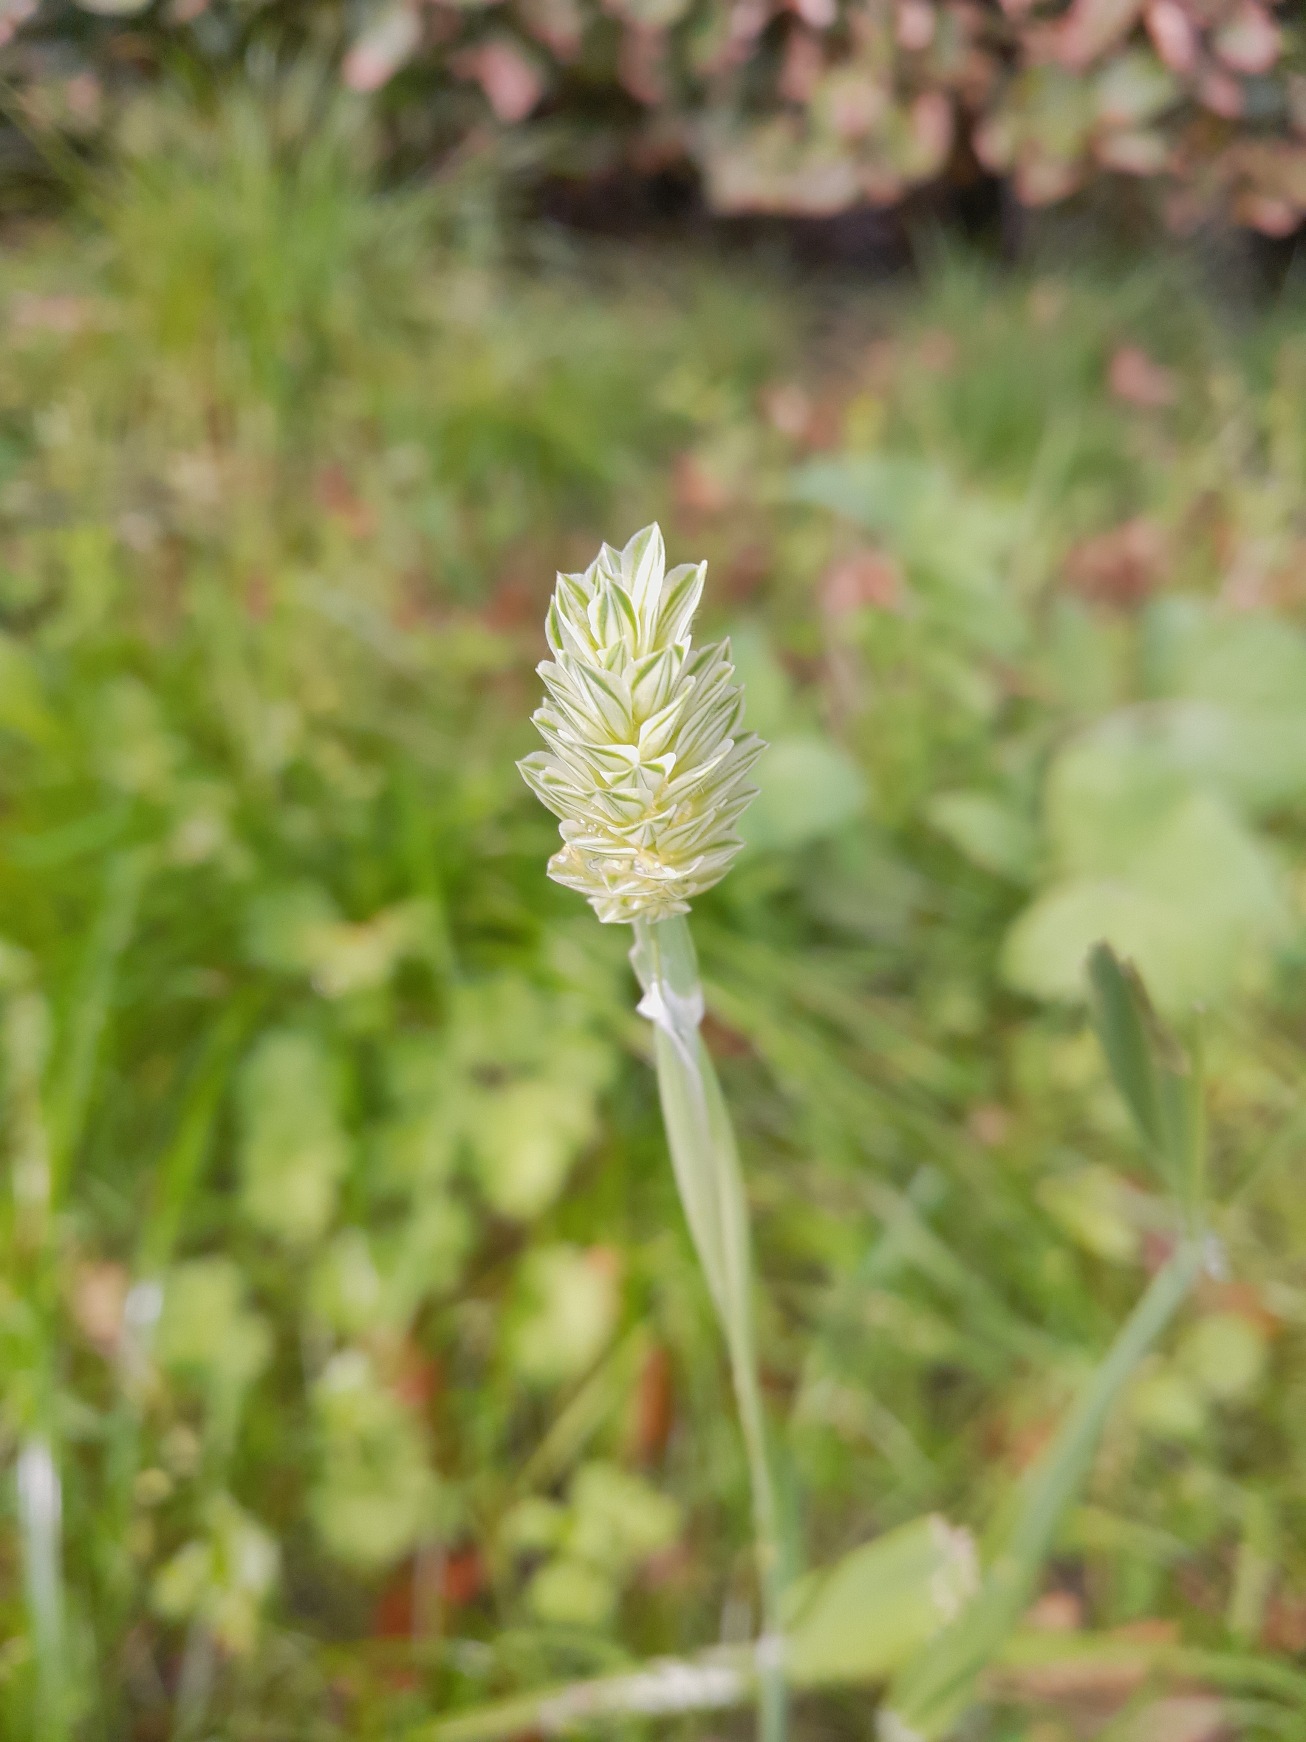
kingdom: Plantae
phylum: Tracheophyta
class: Liliopsida
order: Poales
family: Poaceae
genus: Phalaris
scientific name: Phalaris canariensis
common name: Kanariegræs
